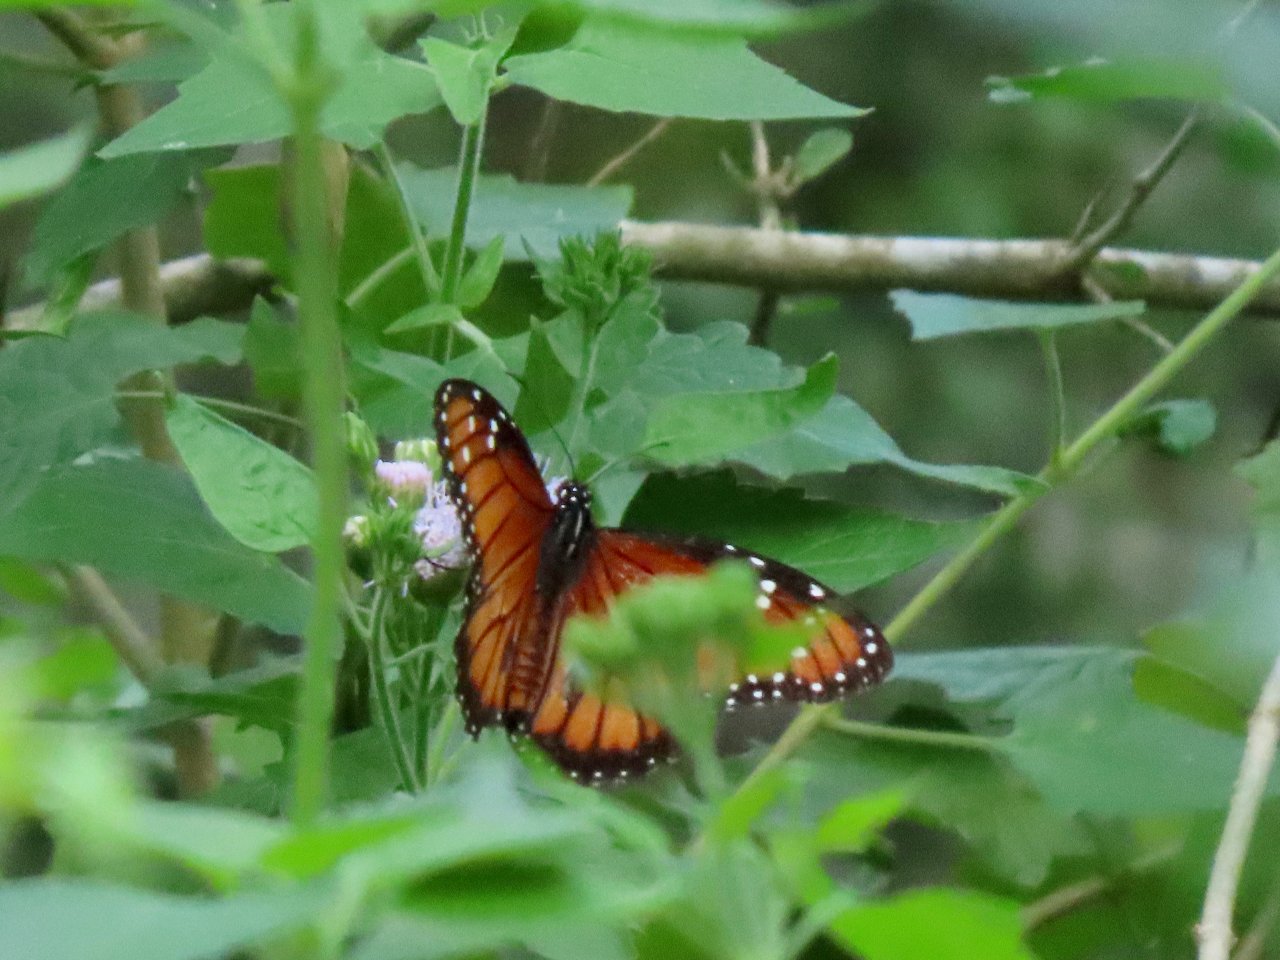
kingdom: Animalia
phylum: Arthropoda
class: Insecta
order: Lepidoptera
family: Nymphalidae
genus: Danaus
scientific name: Danaus eresimus
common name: Soldier
